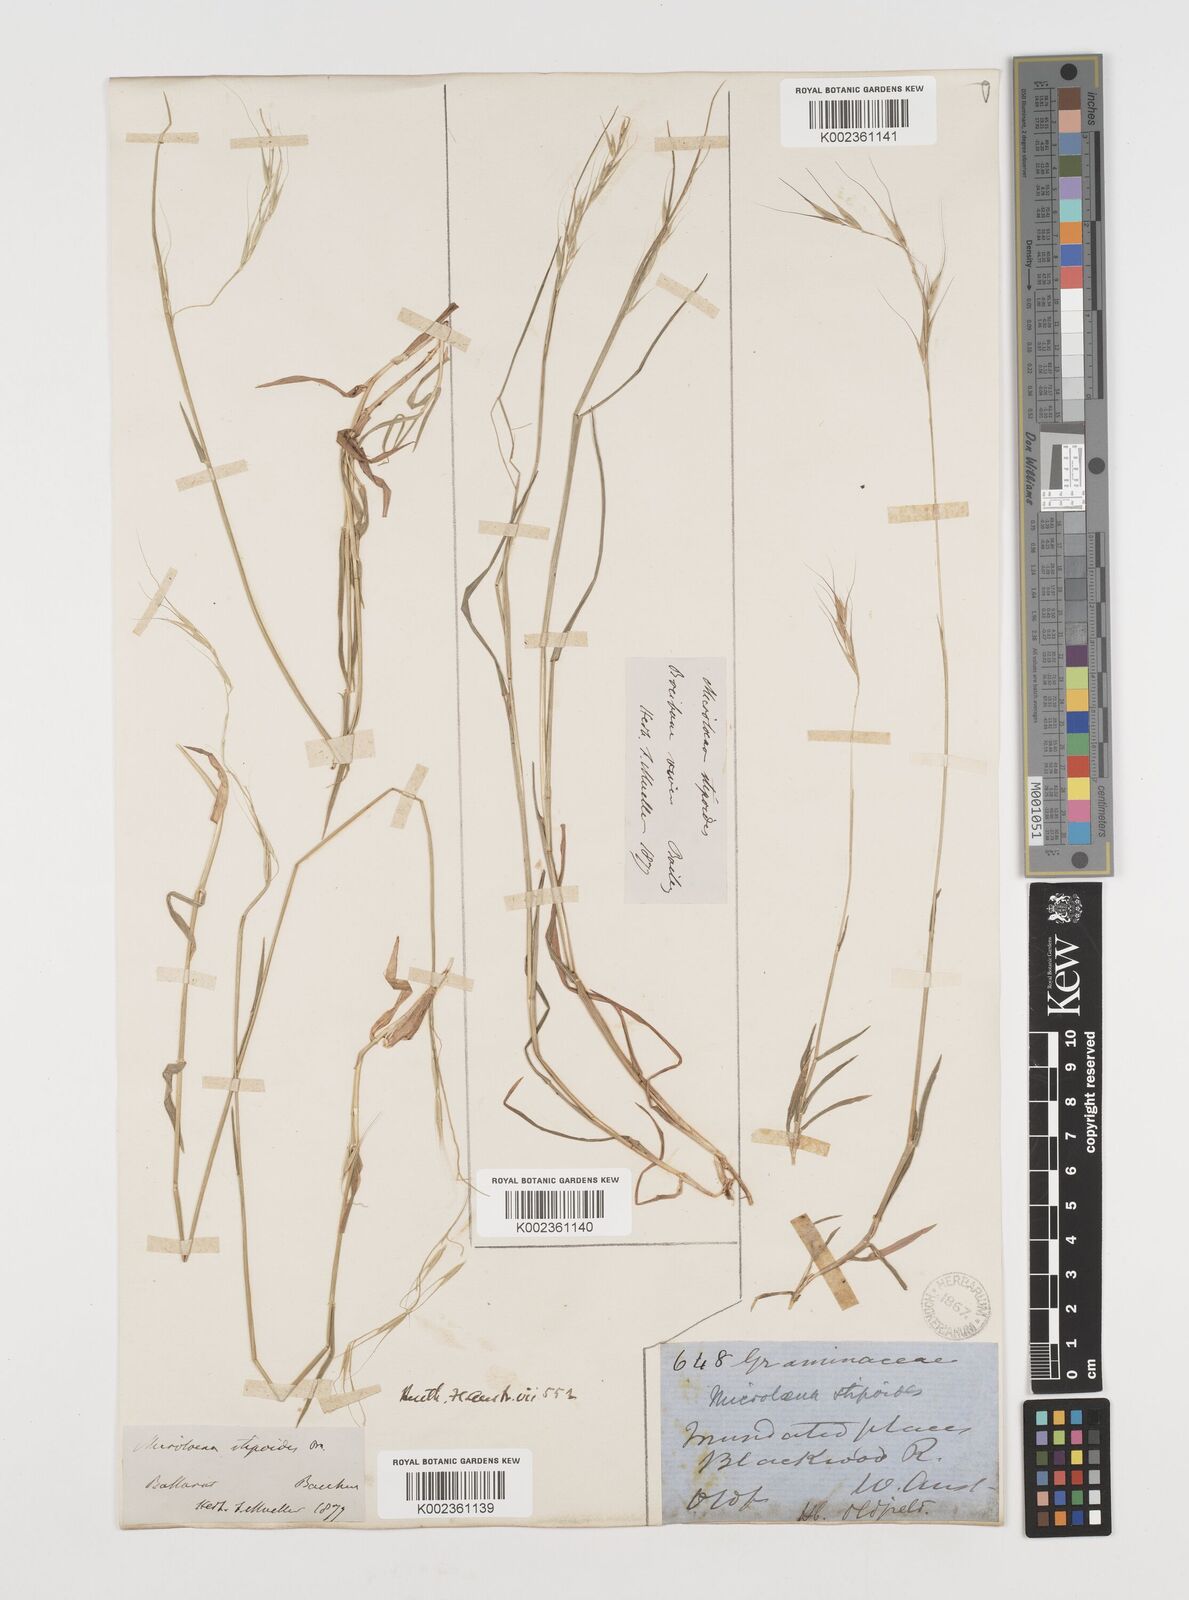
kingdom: Plantae
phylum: Tracheophyta
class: Liliopsida
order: Poales
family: Poaceae
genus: Microlaena
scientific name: Microlaena stipoides
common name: Meadow ricegrass
